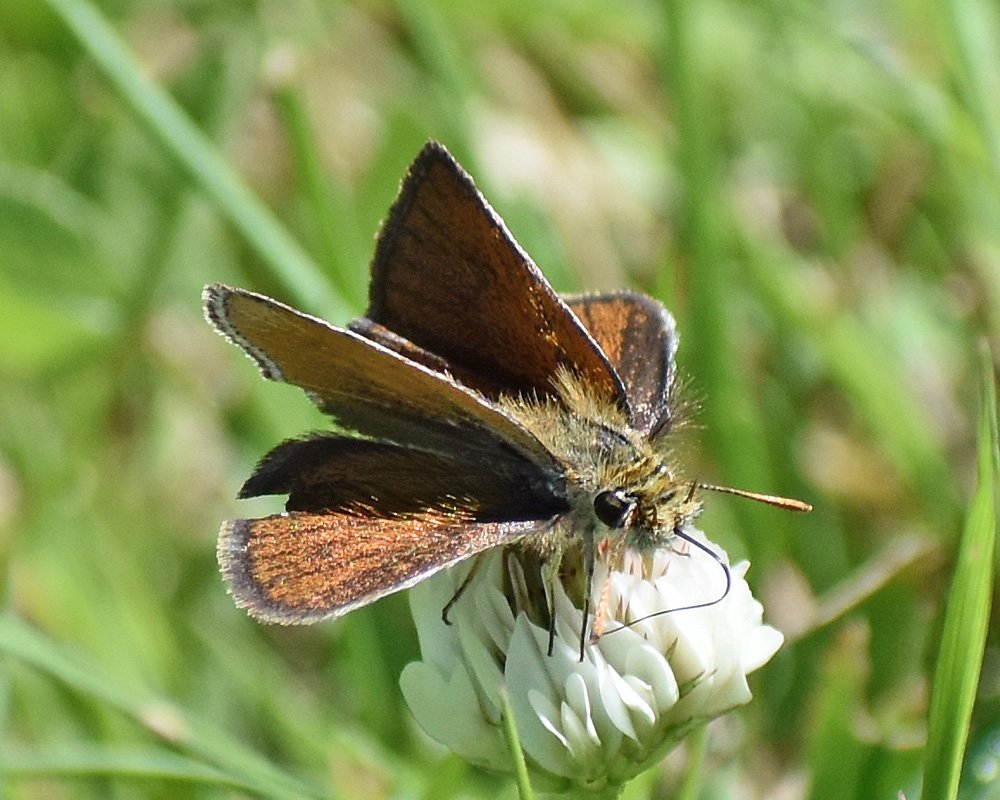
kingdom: Animalia
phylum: Arthropoda
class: Insecta
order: Lepidoptera
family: Hesperiidae
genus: Oarisma
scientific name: Oarisma garita
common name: Garita Skipperling
